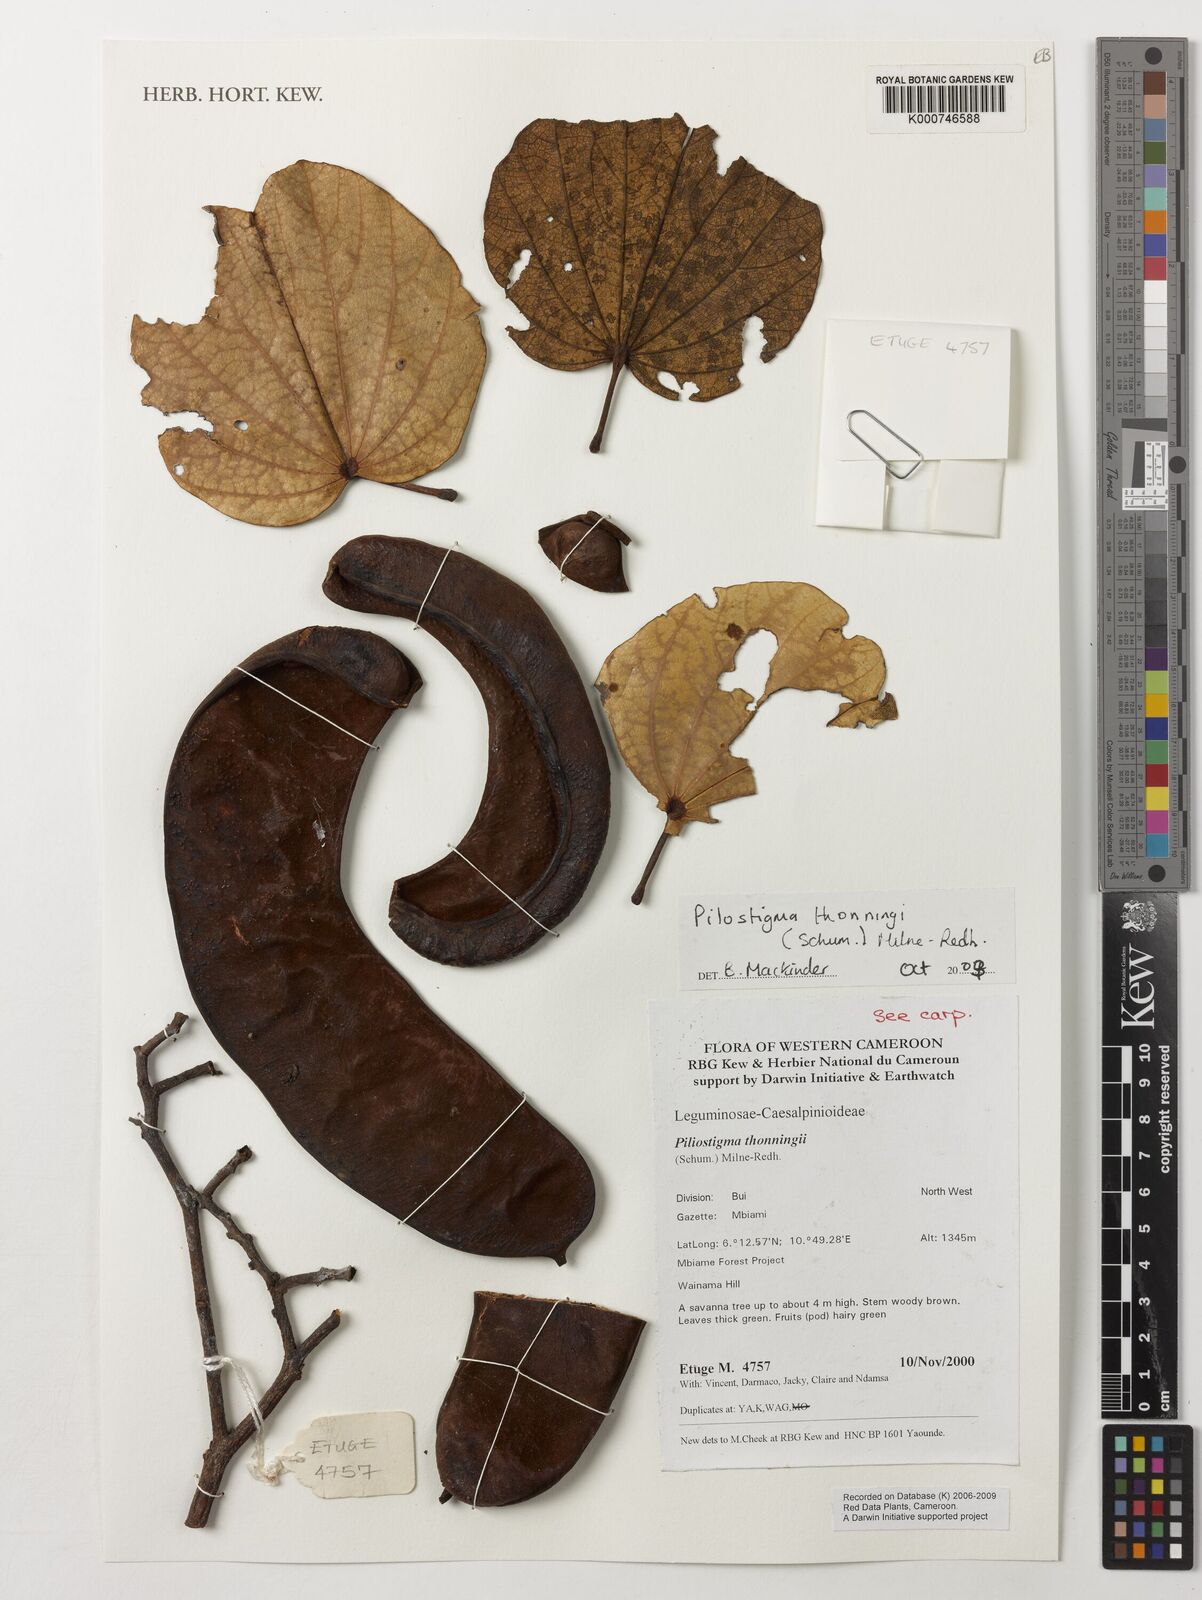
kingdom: Plantae
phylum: Tracheophyta
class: Magnoliopsida
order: Fabales
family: Fabaceae
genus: Piliostigma
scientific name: Piliostigma thonningii
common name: Kao
